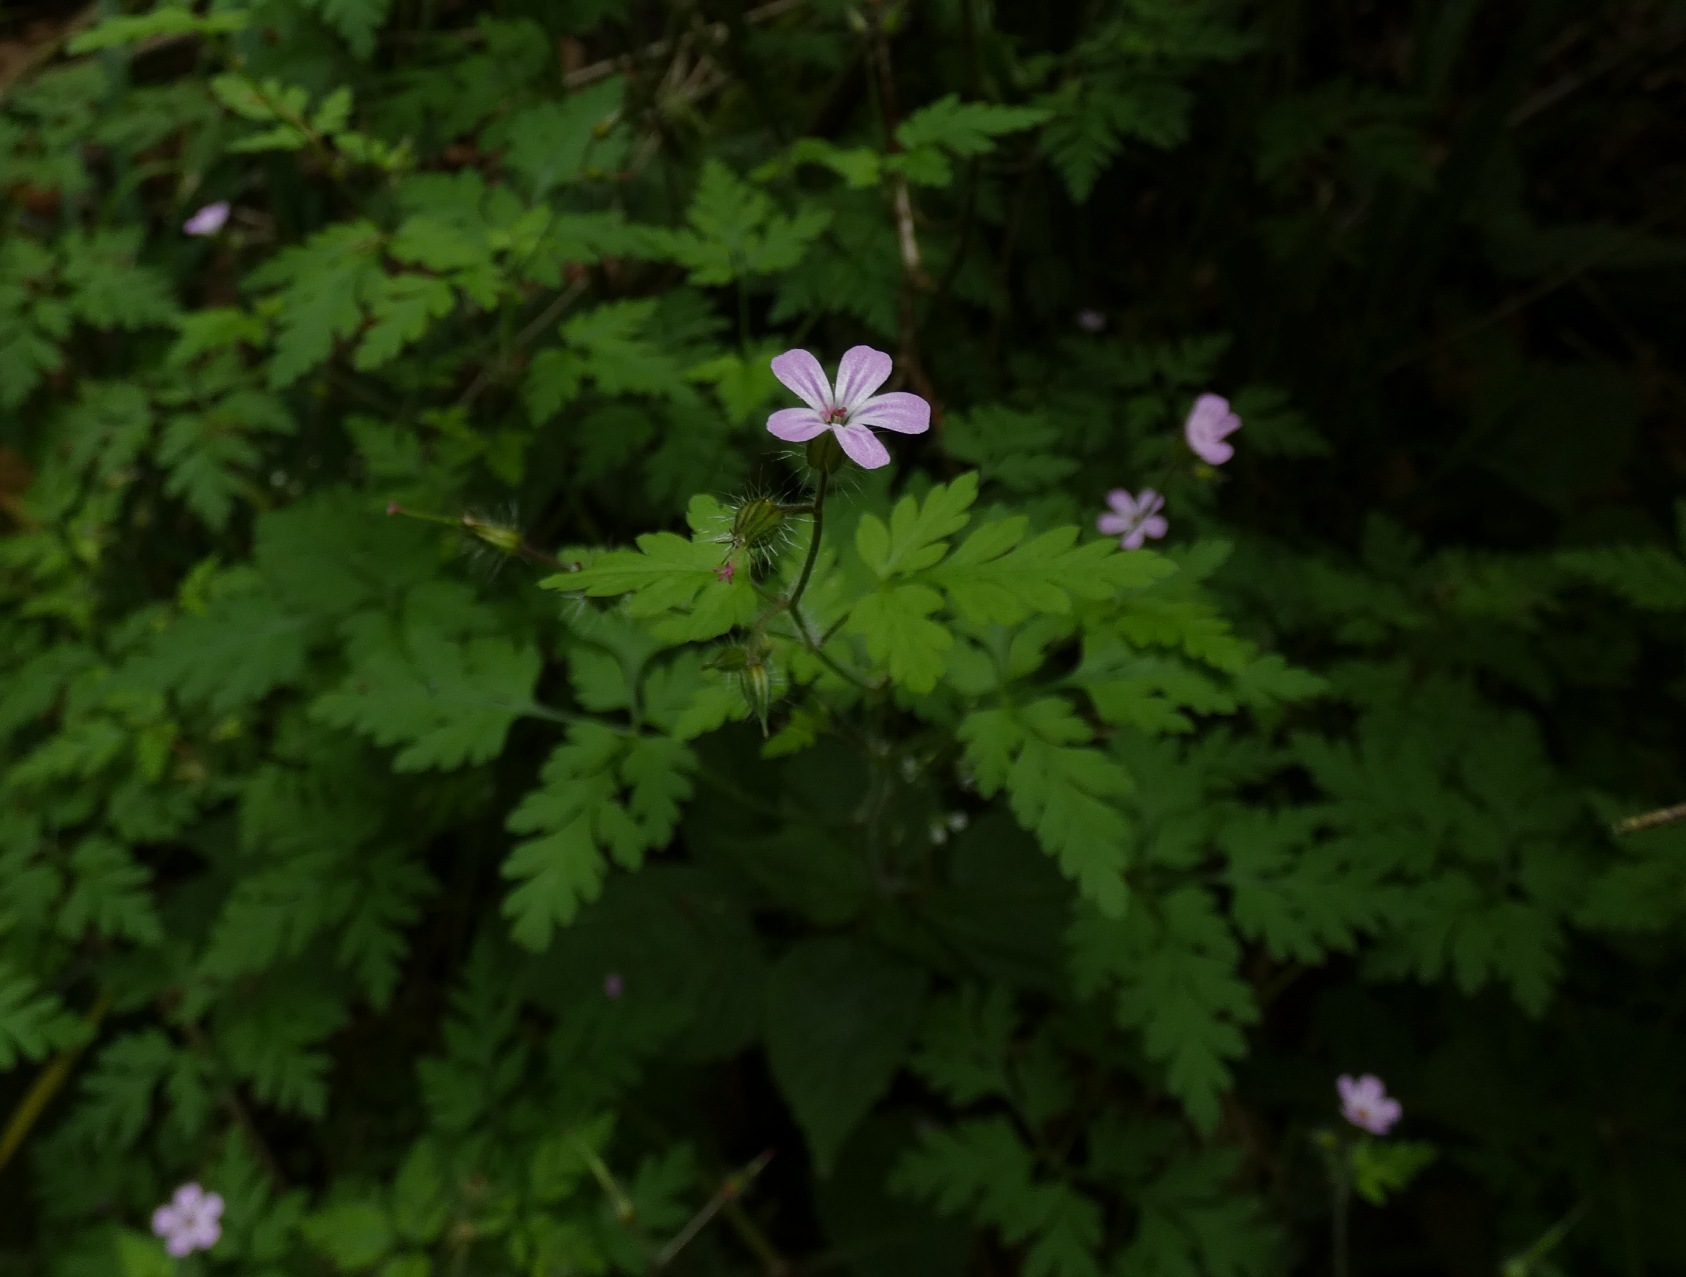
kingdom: Plantae
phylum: Tracheophyta
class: Magnoliopsida
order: Geraniales
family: Geraniaceae
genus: Geranium
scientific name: Geranium robertianum
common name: Stinkende storkenæb
